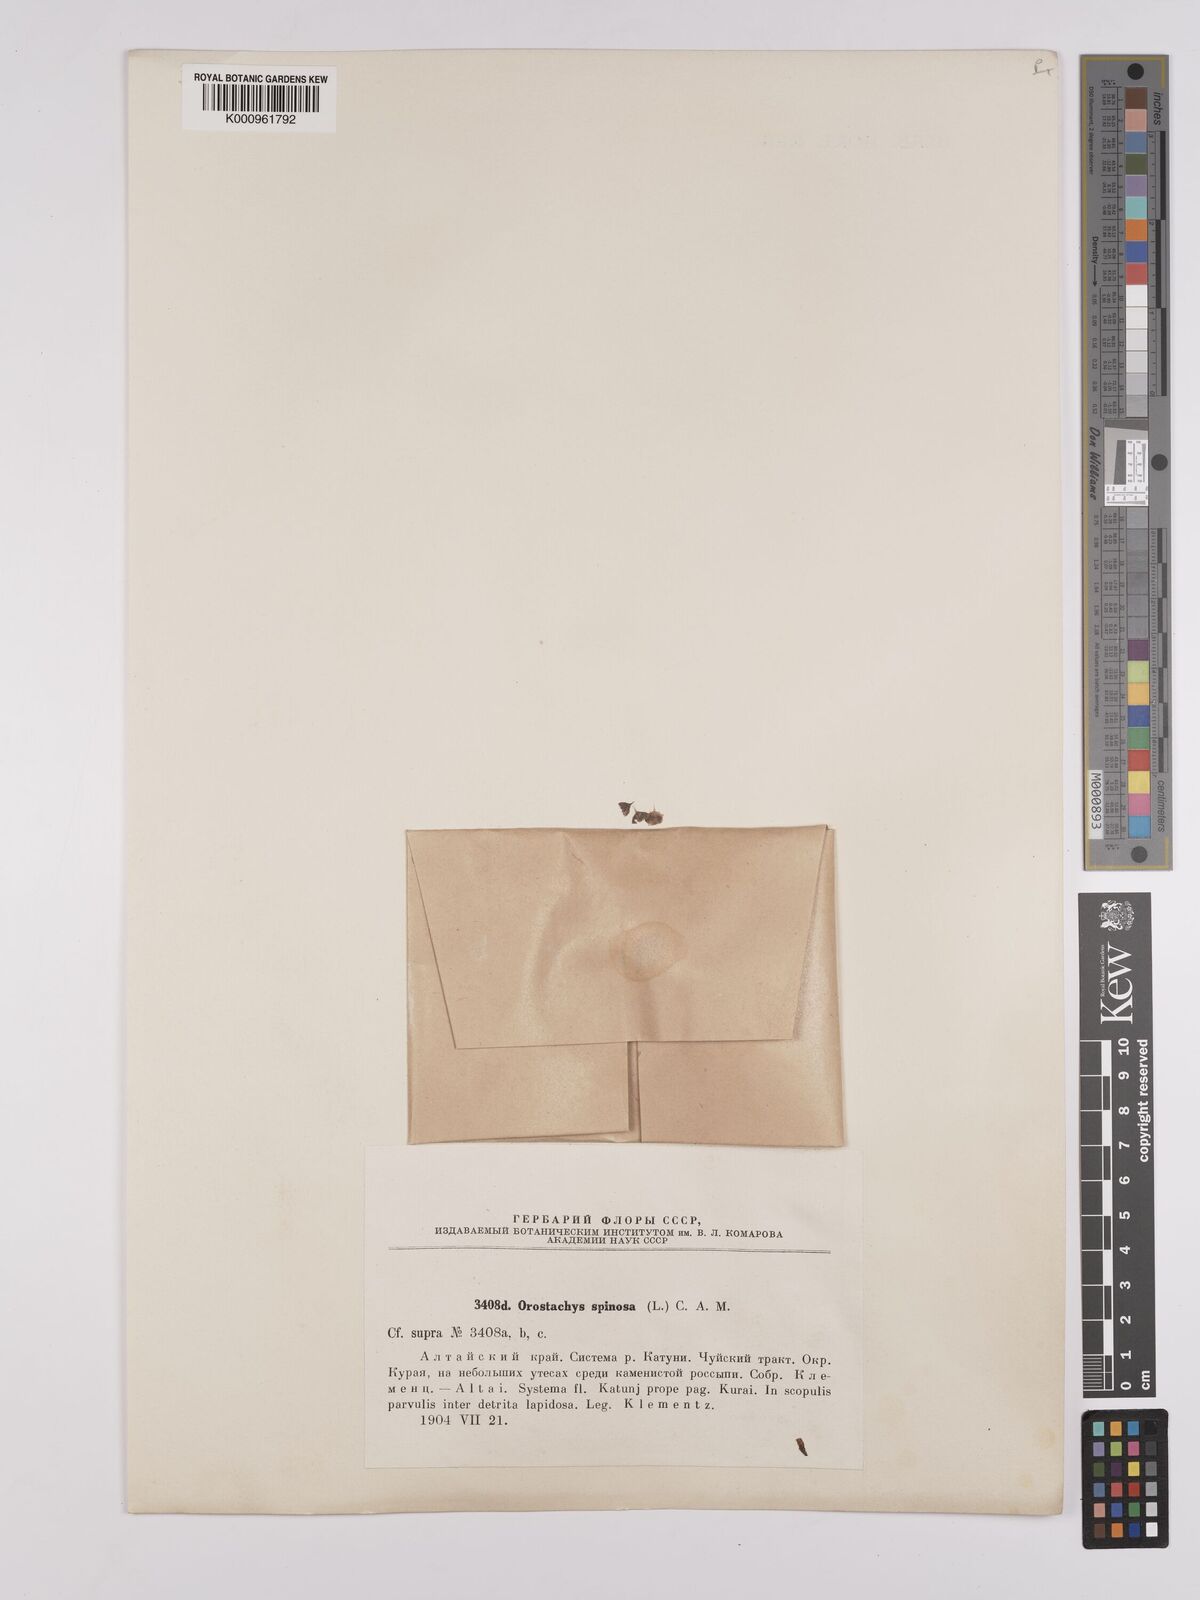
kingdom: Plantae
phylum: Tracheophyta
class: Magnoliopsida
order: Saxifragales
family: Crassulaceae
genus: Orostachys
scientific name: Orostachys spinosa
